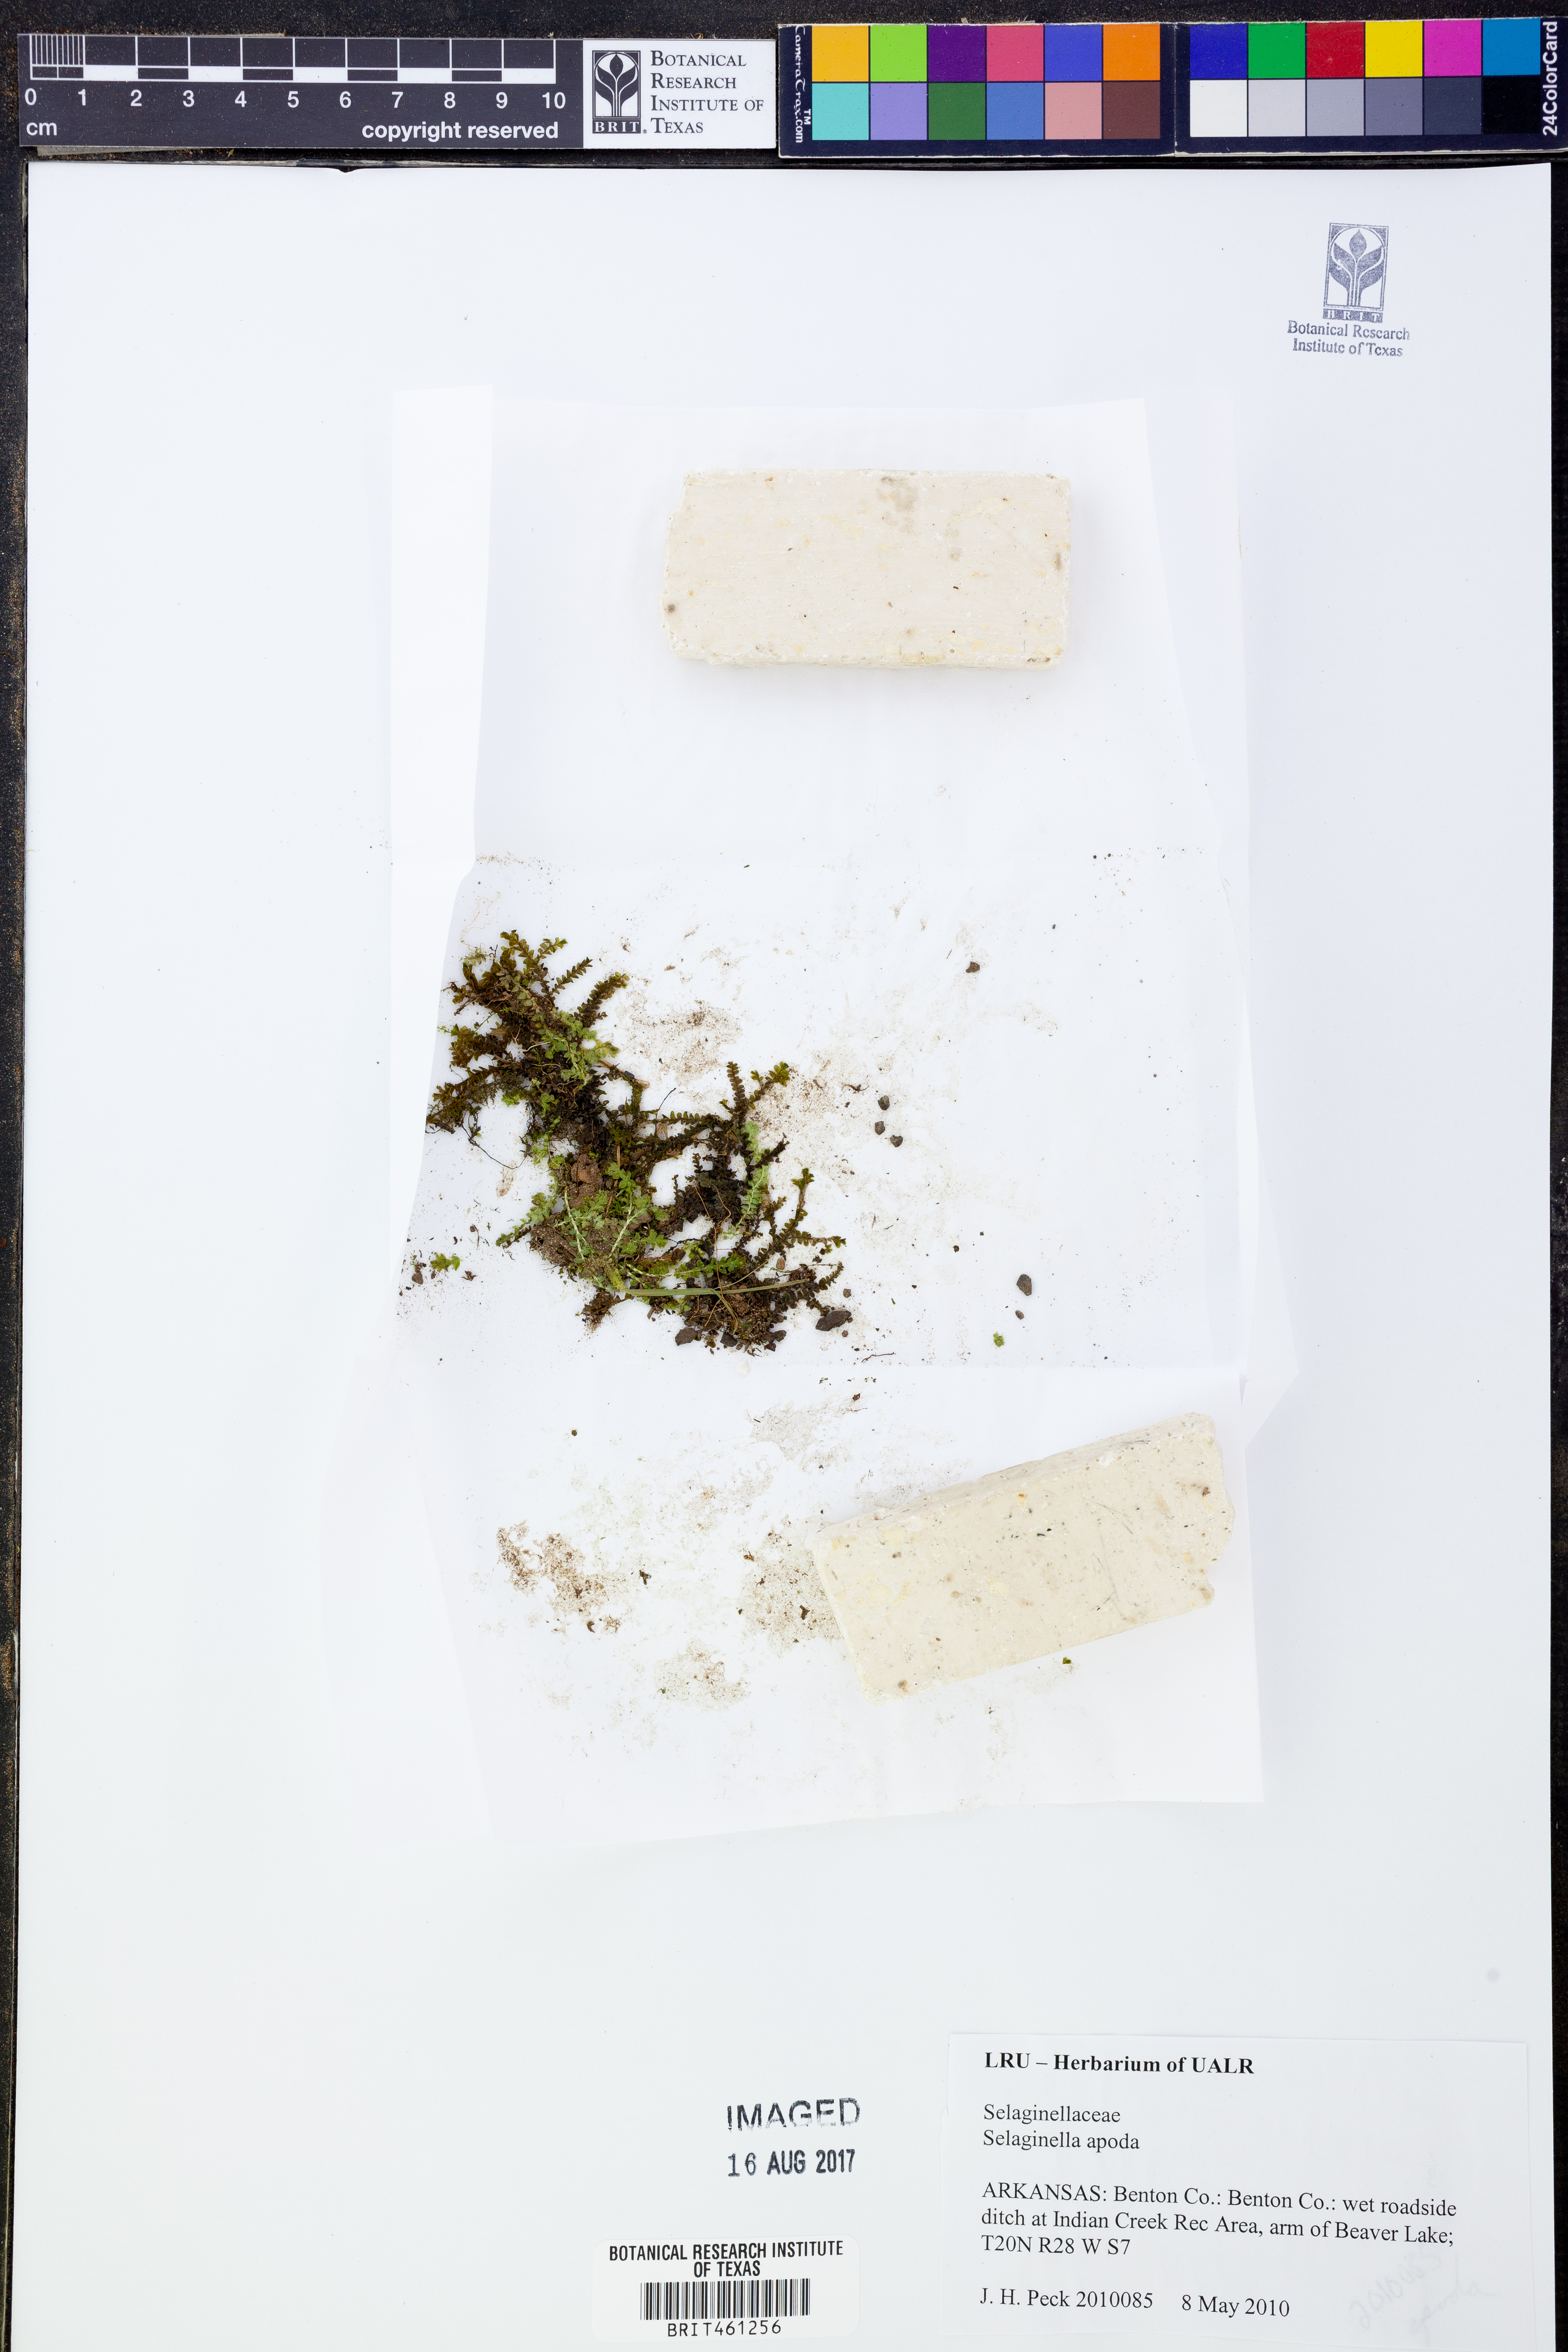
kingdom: Plantae
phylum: Tracheophyta
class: Lycopodiopsida
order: Selaginellales
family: Selaginellaceae
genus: Selaginella
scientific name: Selaginella apoda
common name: Creeping spikemoss
